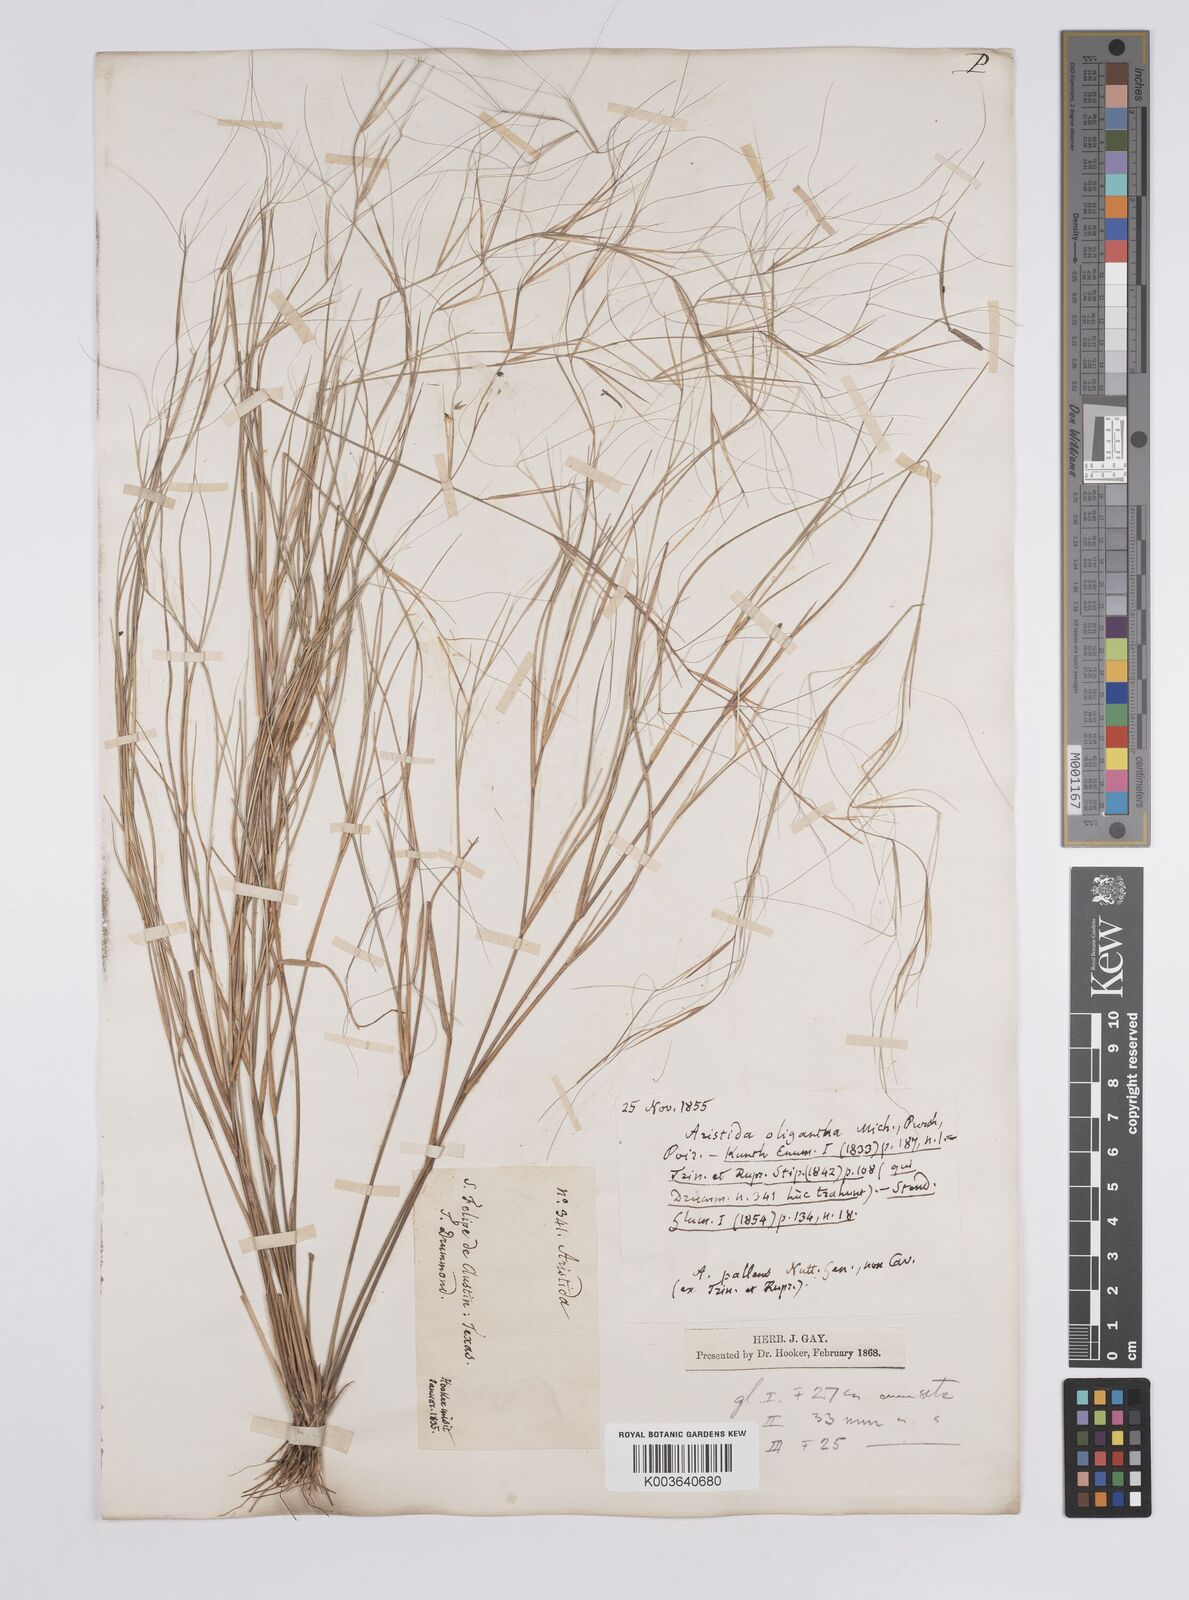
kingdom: Plantae
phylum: Tracheophyta
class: Liliopsida
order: Poales
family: Poaceae
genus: Aristida
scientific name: Aristida oligantha
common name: Few-flowered aristida
